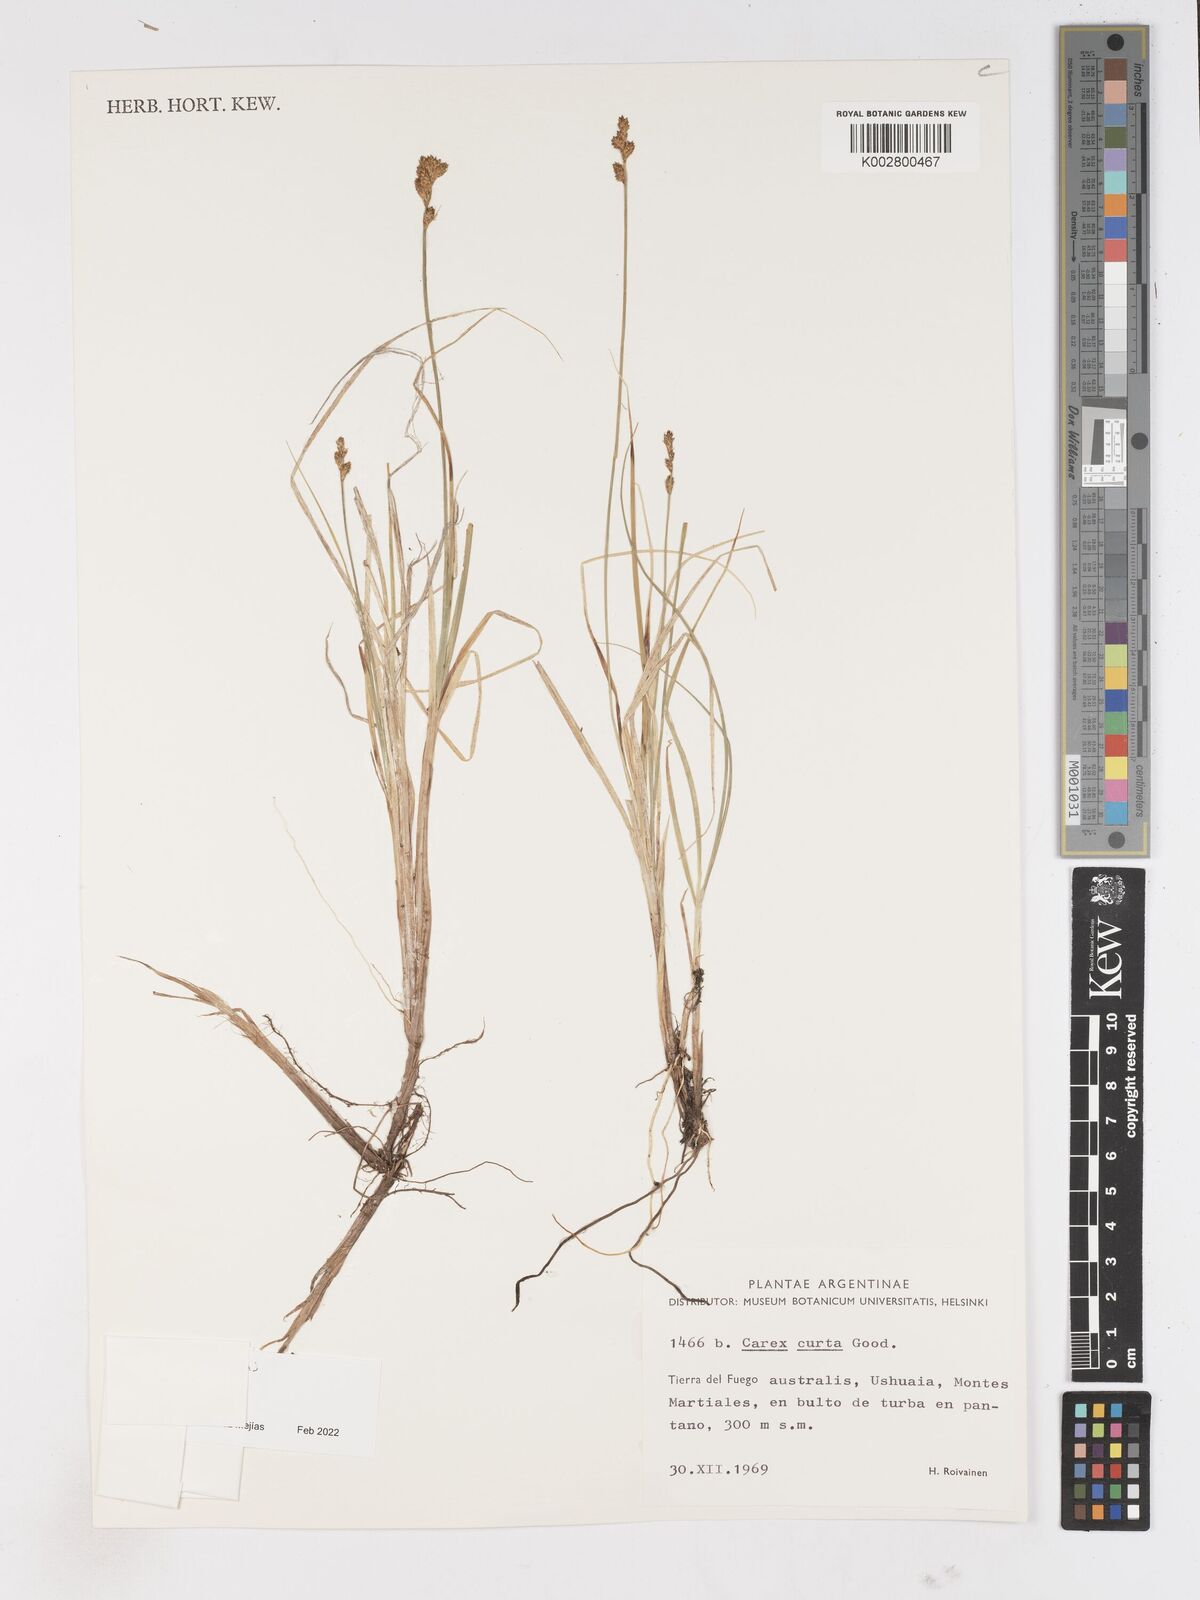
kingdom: Plantae
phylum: Tracheophyta
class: Liliopsida
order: Poales
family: Cyperaceae
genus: Carex
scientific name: Carex
